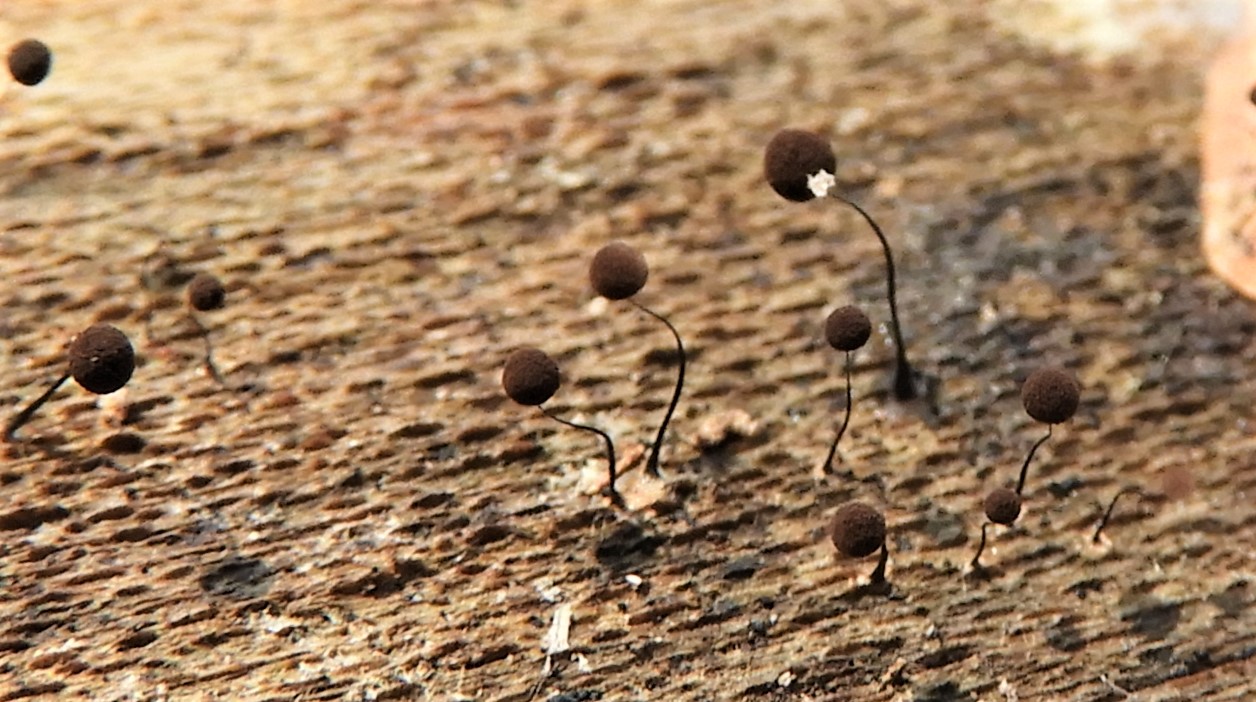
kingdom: Protozoa
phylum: Mycetozoa
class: Myxomycetes
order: Stemonitidales
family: Stemonitidaceae
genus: Comatricha
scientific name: Comatricha
